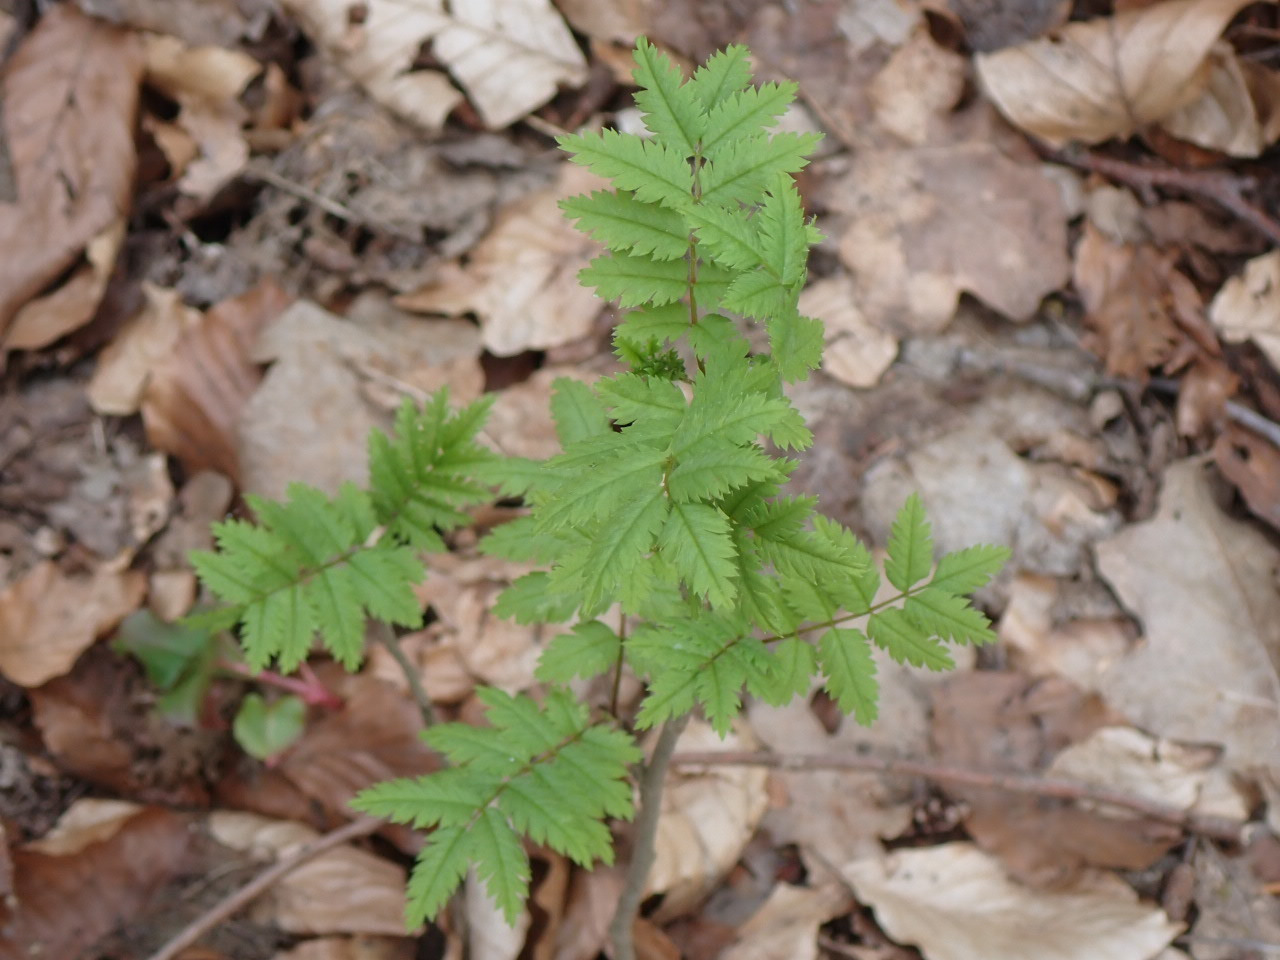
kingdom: Plantae
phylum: Tracheophyta
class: Magnoliopsida
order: Rosales
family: Rosaceae
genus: Sorbus
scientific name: Sorbus aucuparia
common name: Almindelig røn
